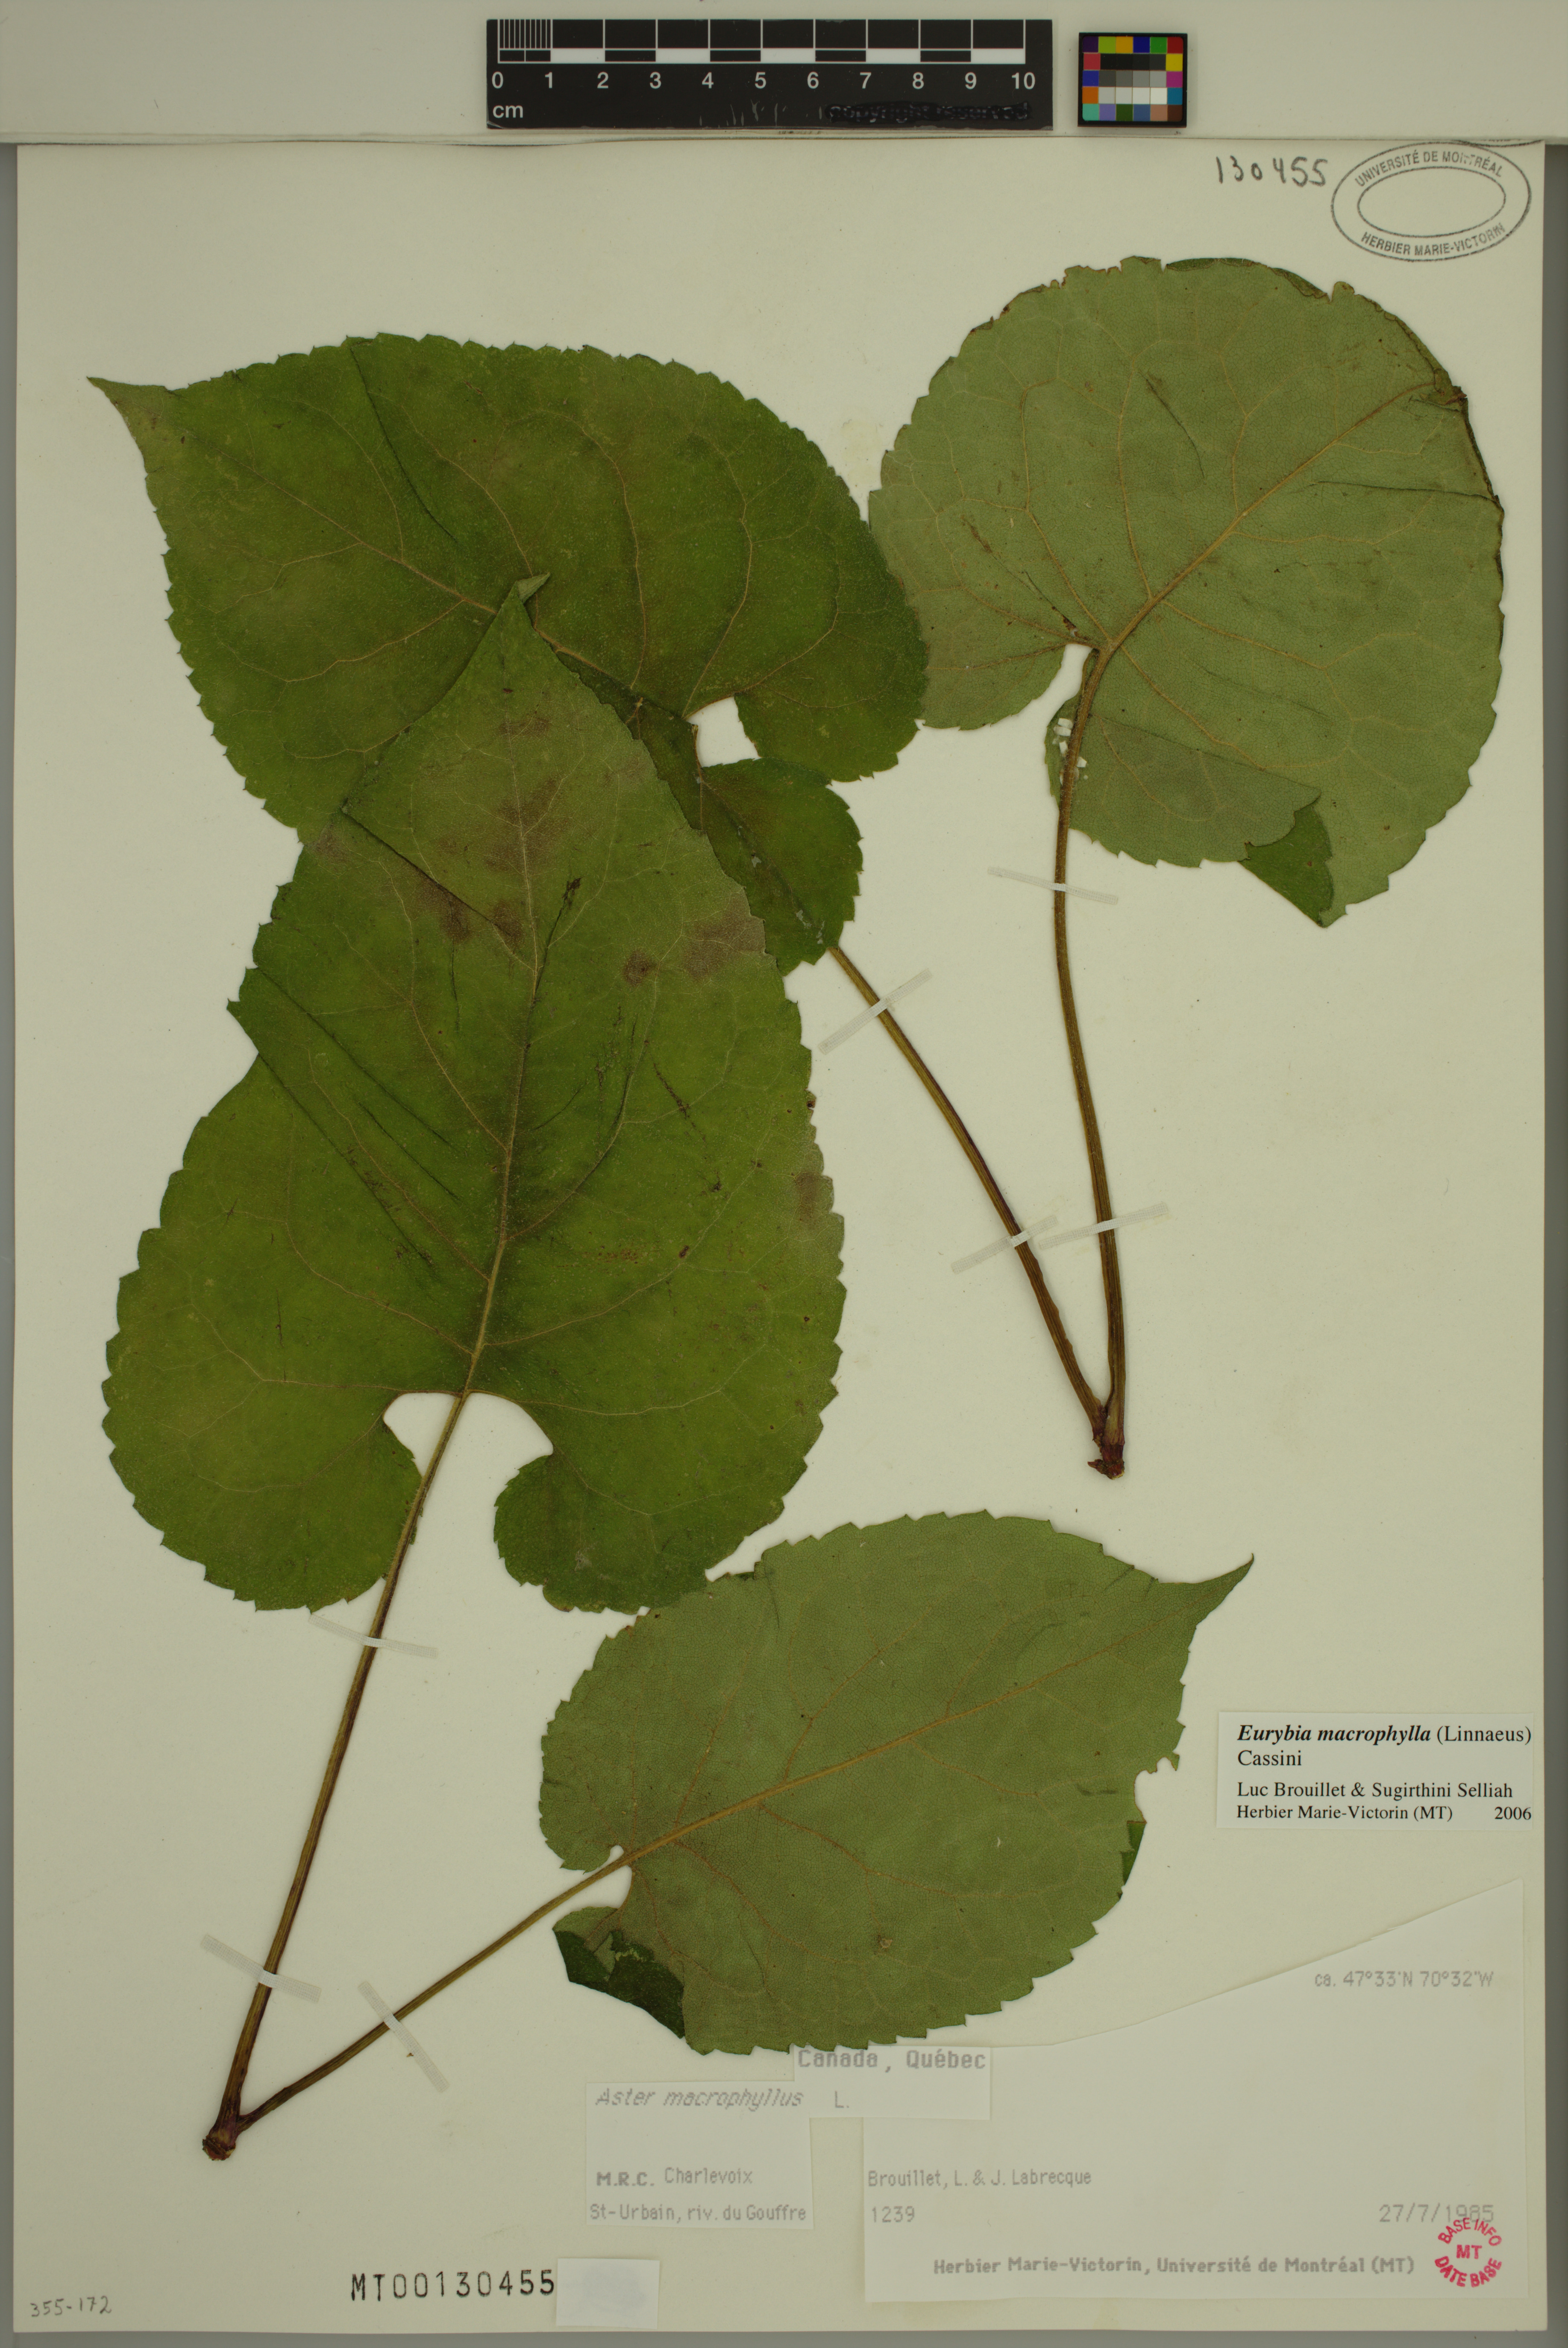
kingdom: Plantae
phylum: Tracheophyta
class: Magnoliopsida
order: Asterales
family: Asteraceae
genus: Eurybia
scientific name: Eurybia macrophylla
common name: Big-leaved aster
